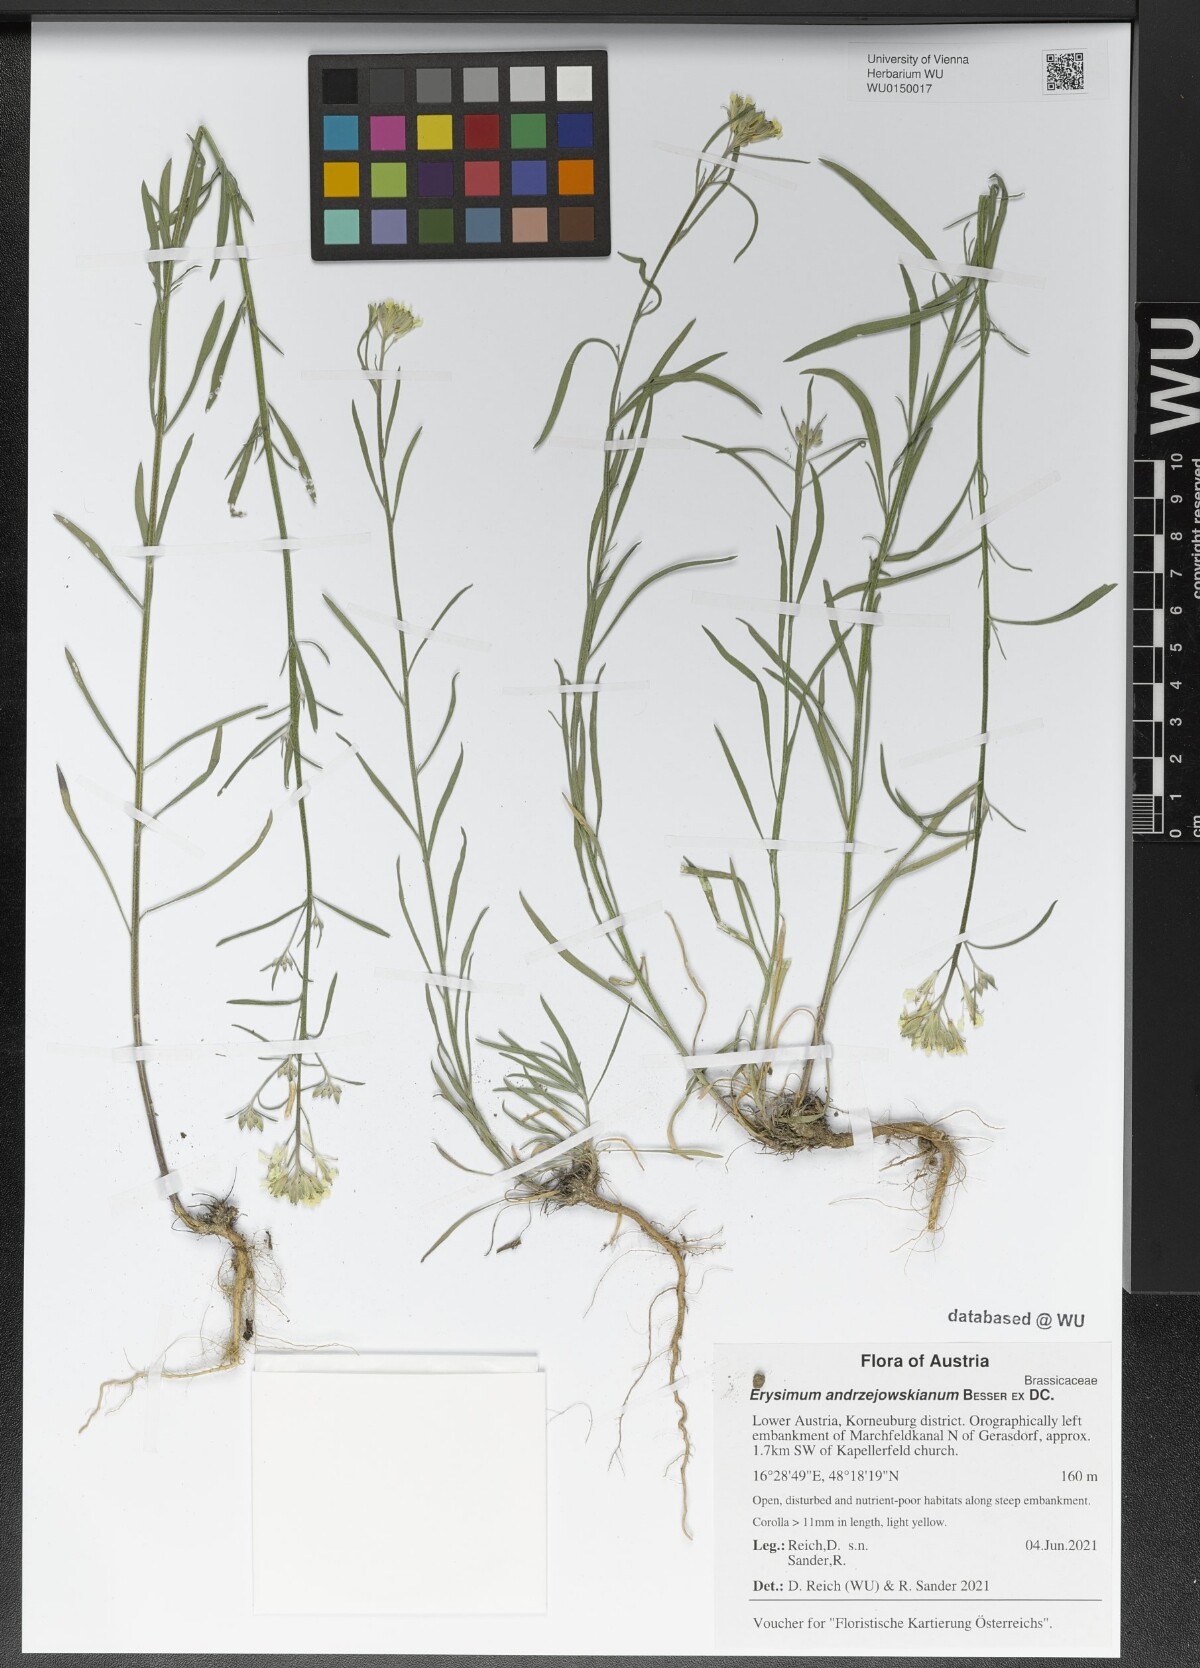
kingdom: Plantae
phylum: Tracheophyta
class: Magnoliopsida
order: Brassicales
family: Brassicaceae
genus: Erysimum
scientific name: Erysimum andrzejowskianum
